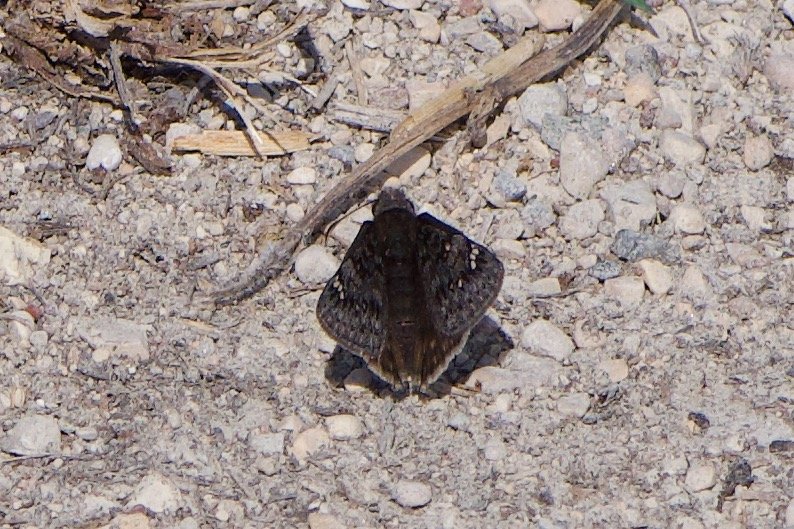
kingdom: Animalia
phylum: Arthropoda
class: Insecta
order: Lepidoptera
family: Hesperiidae
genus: Gesta
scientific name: Gesta
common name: Juvenal's Duskywing
